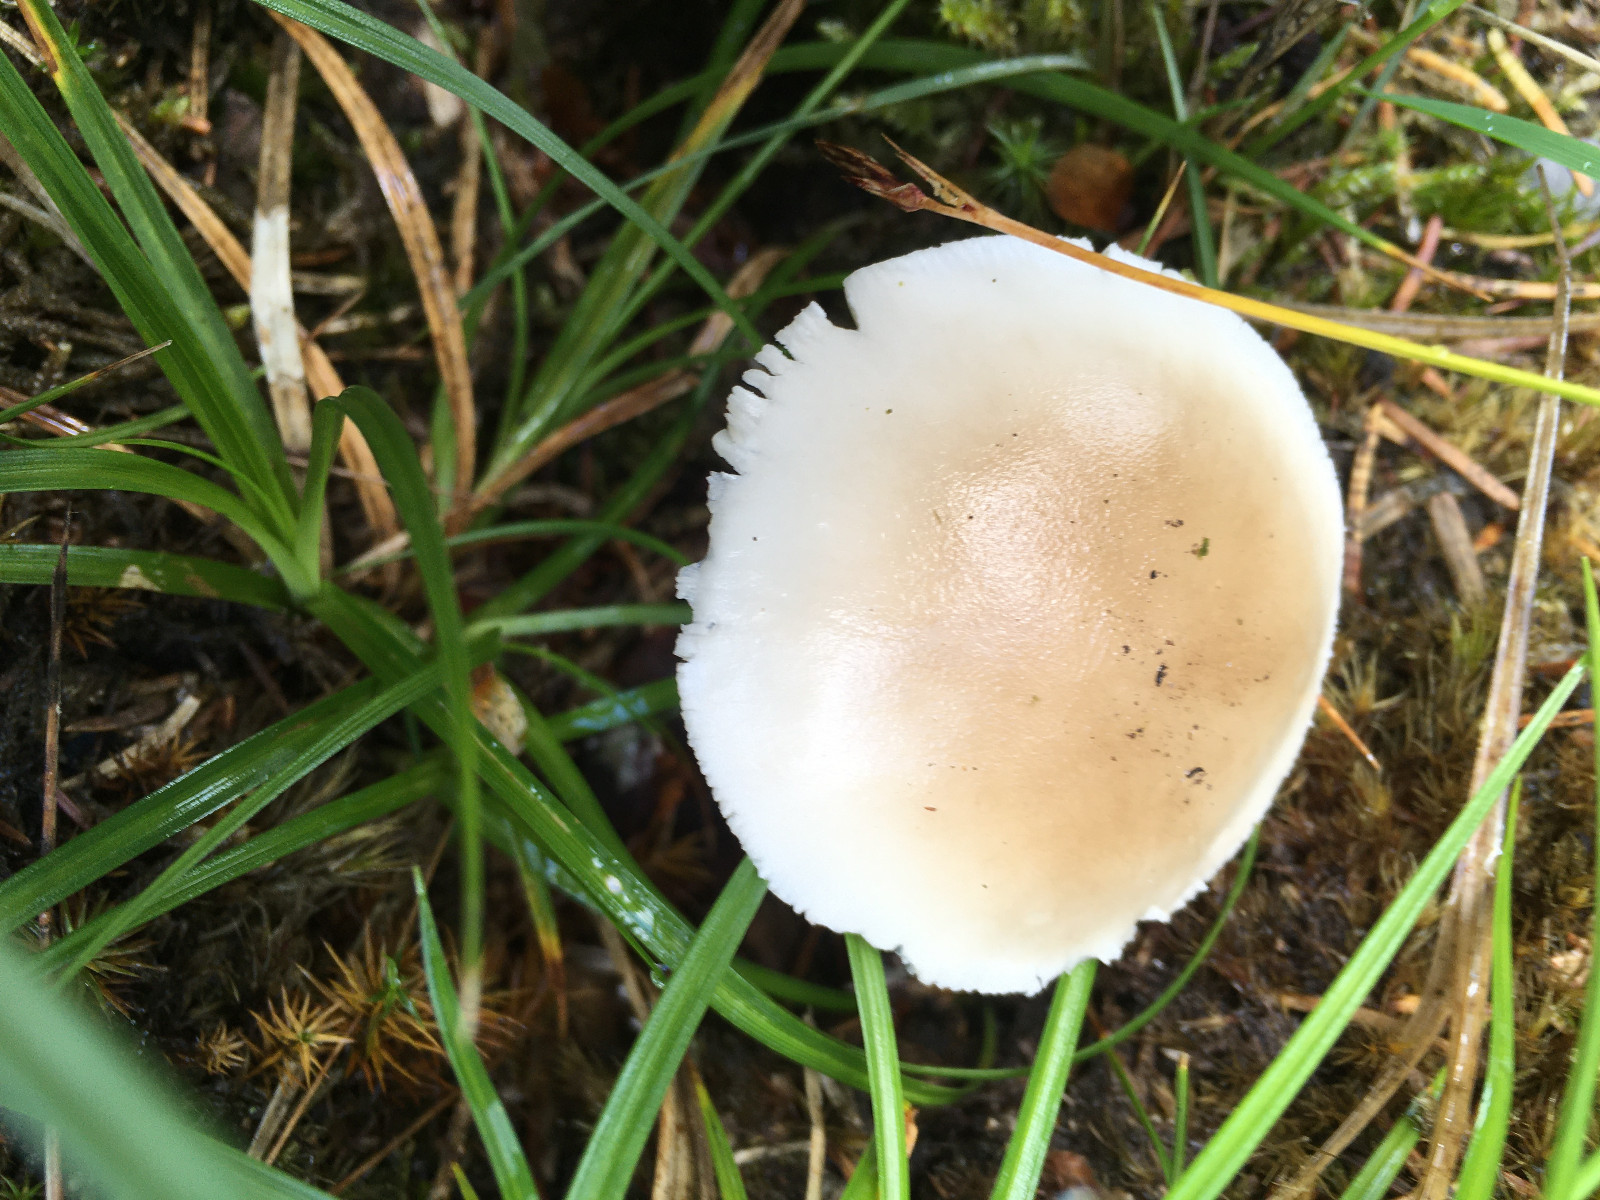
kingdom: Fungi
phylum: Basidiomycota
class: Agaricomycetes
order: Agaricales
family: Amanitaceae
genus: Amanita
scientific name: Amanita
